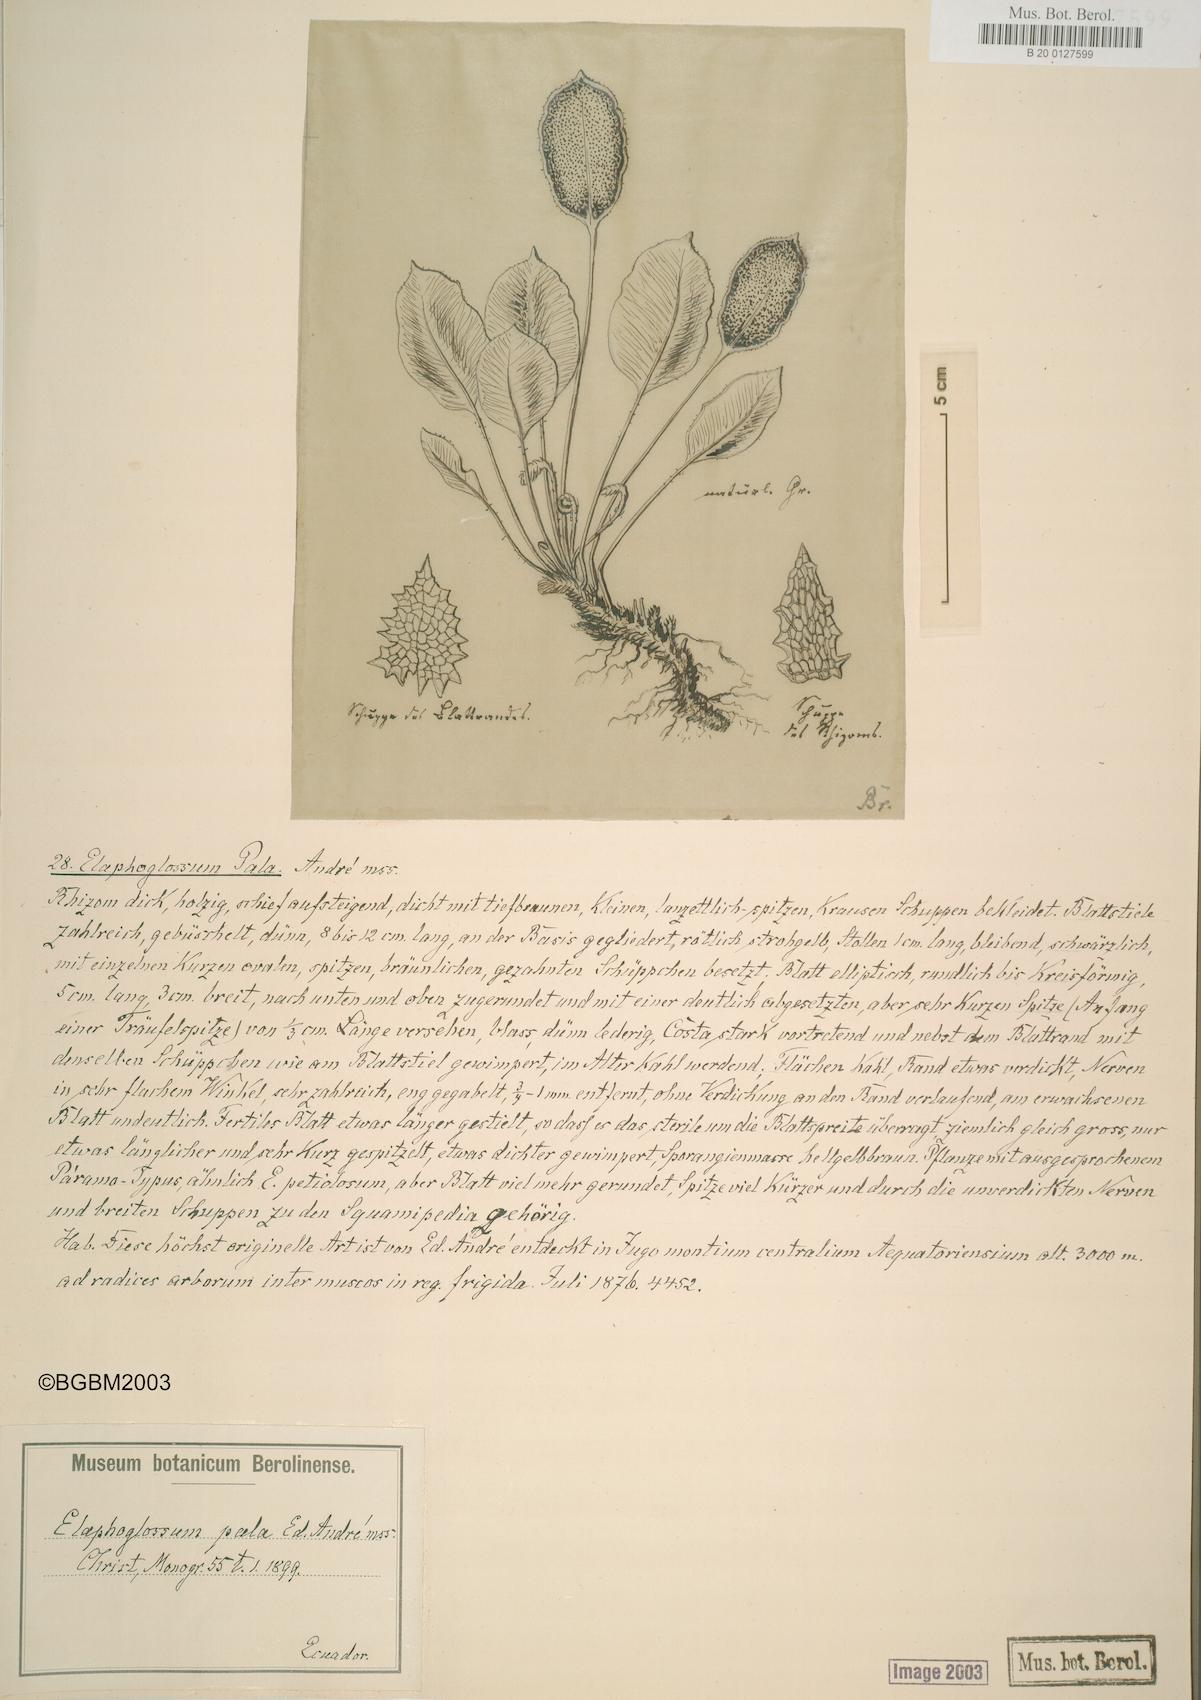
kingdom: Plantae
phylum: Tracheophyta
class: Polypodiopsida
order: Polypodiales
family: Dryopteridaceae
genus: Elaphoglossum
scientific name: Elaphoglossum pala
